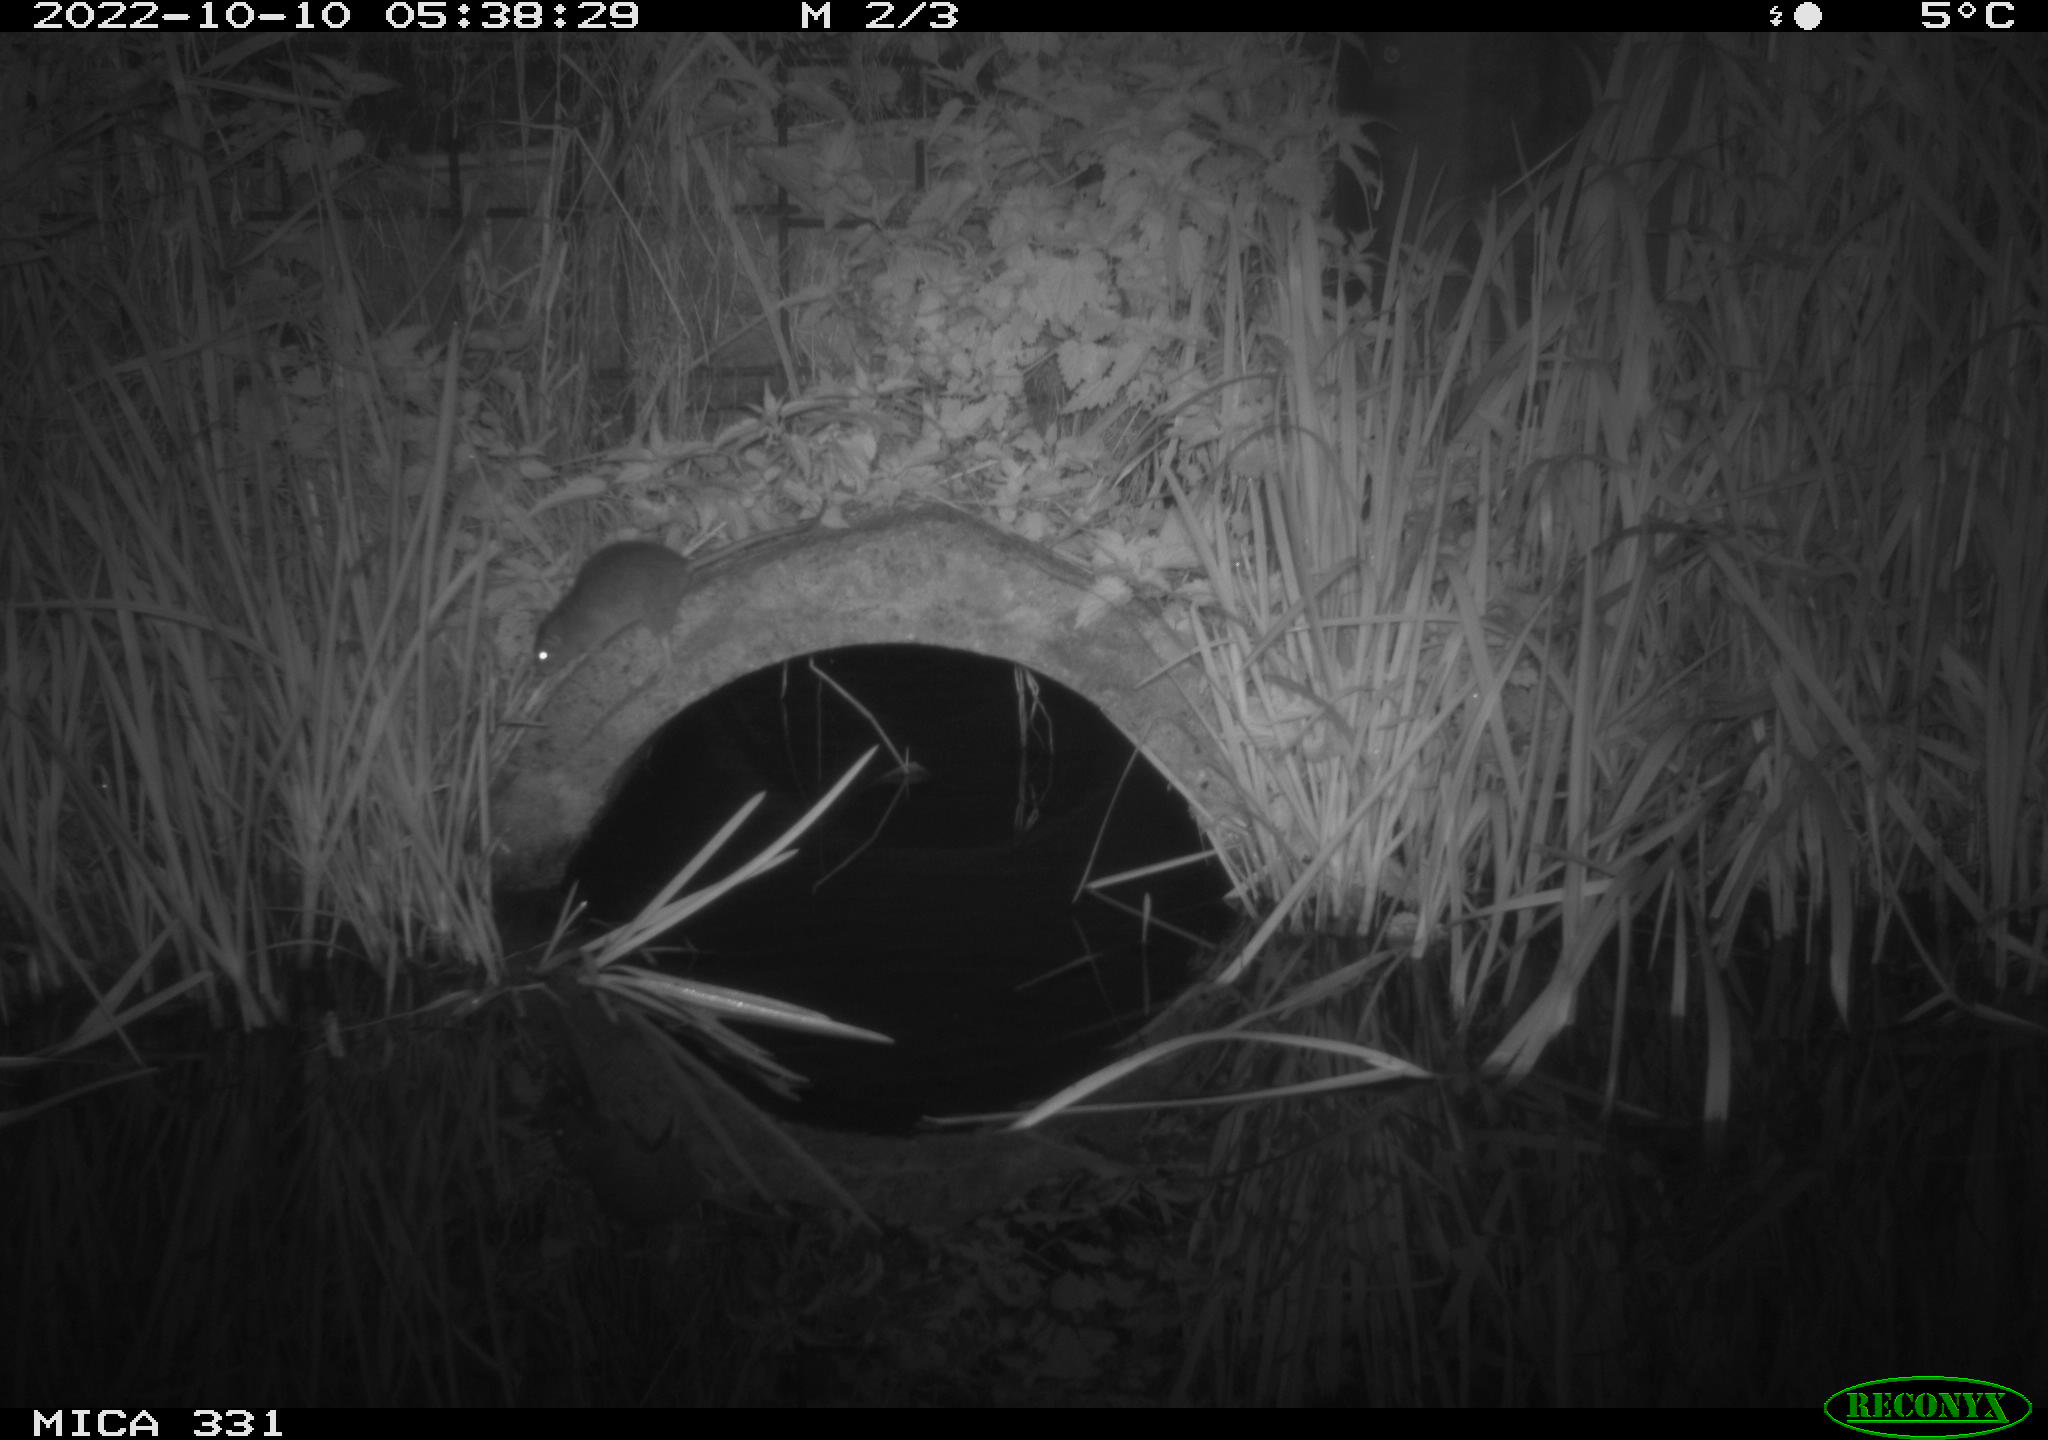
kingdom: Animalia
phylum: Chordata
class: Mammalia
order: Rodentia
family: Muridae
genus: Rattus
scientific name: Rattus norvegicus
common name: Brown rat
